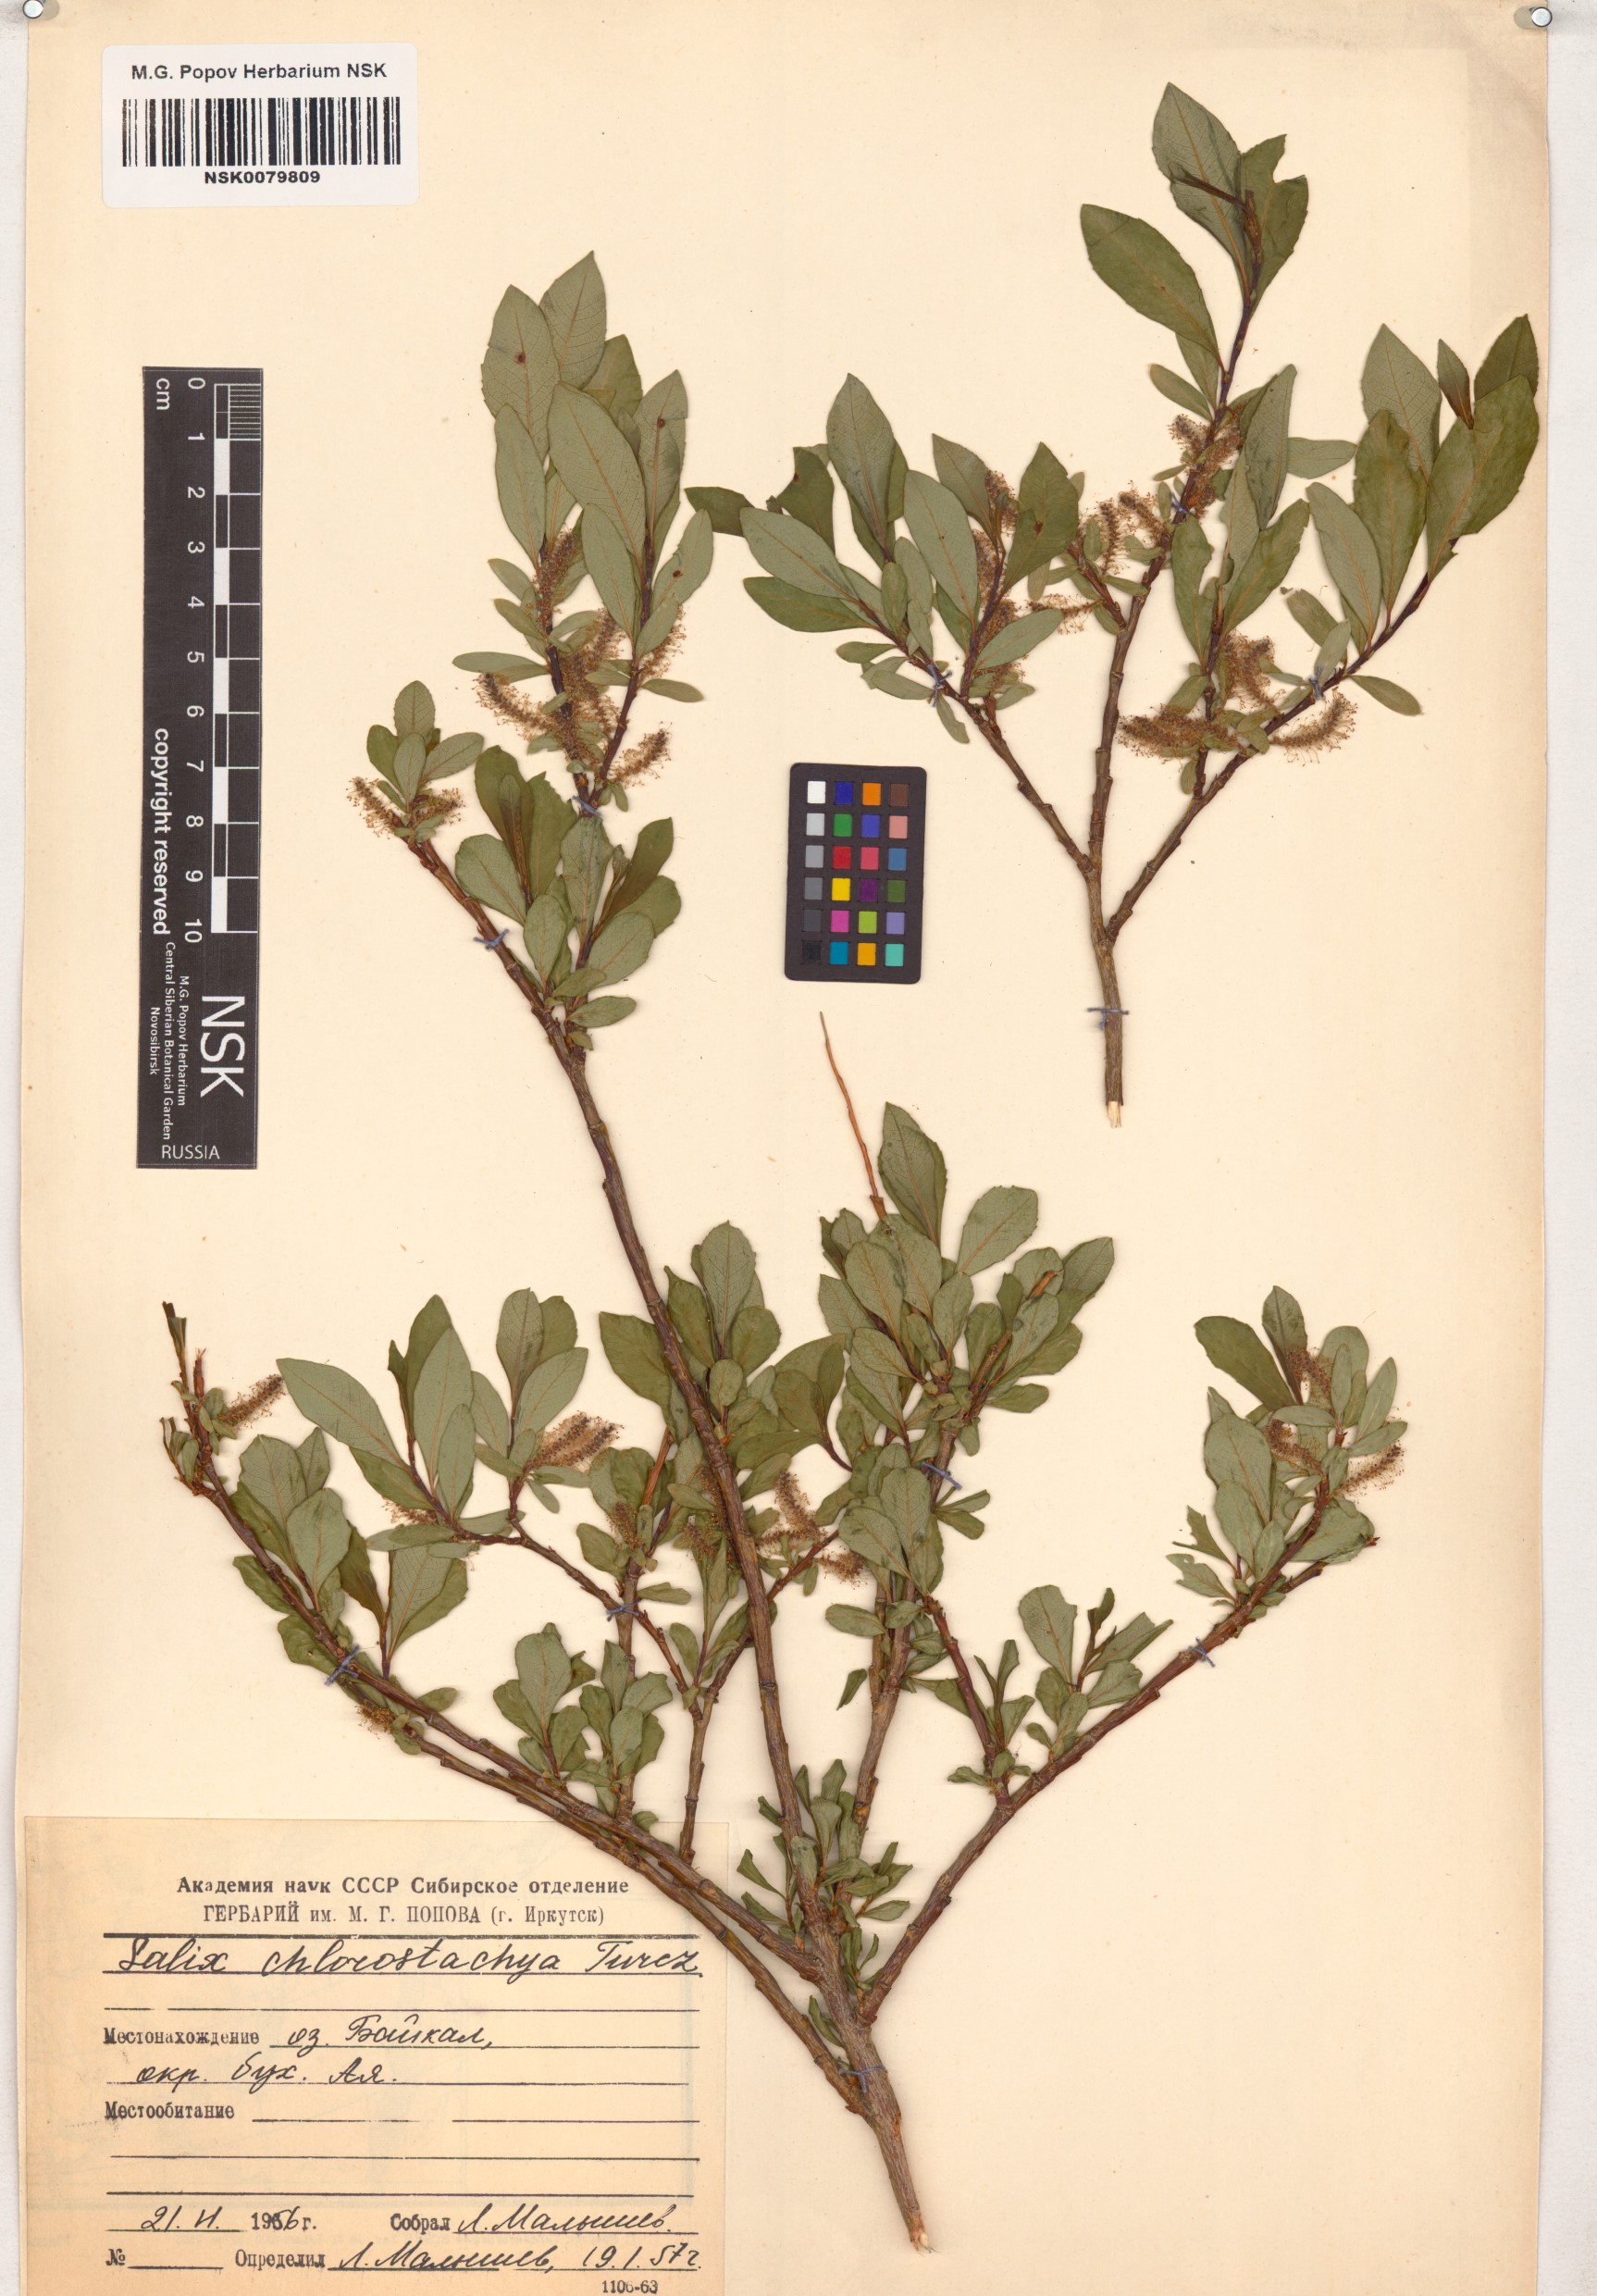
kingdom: Plantae
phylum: Tracheophyta
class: Magnoliopsida
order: Malpighiales
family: Salicaceae
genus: Salix
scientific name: Salix rhamnifolia
